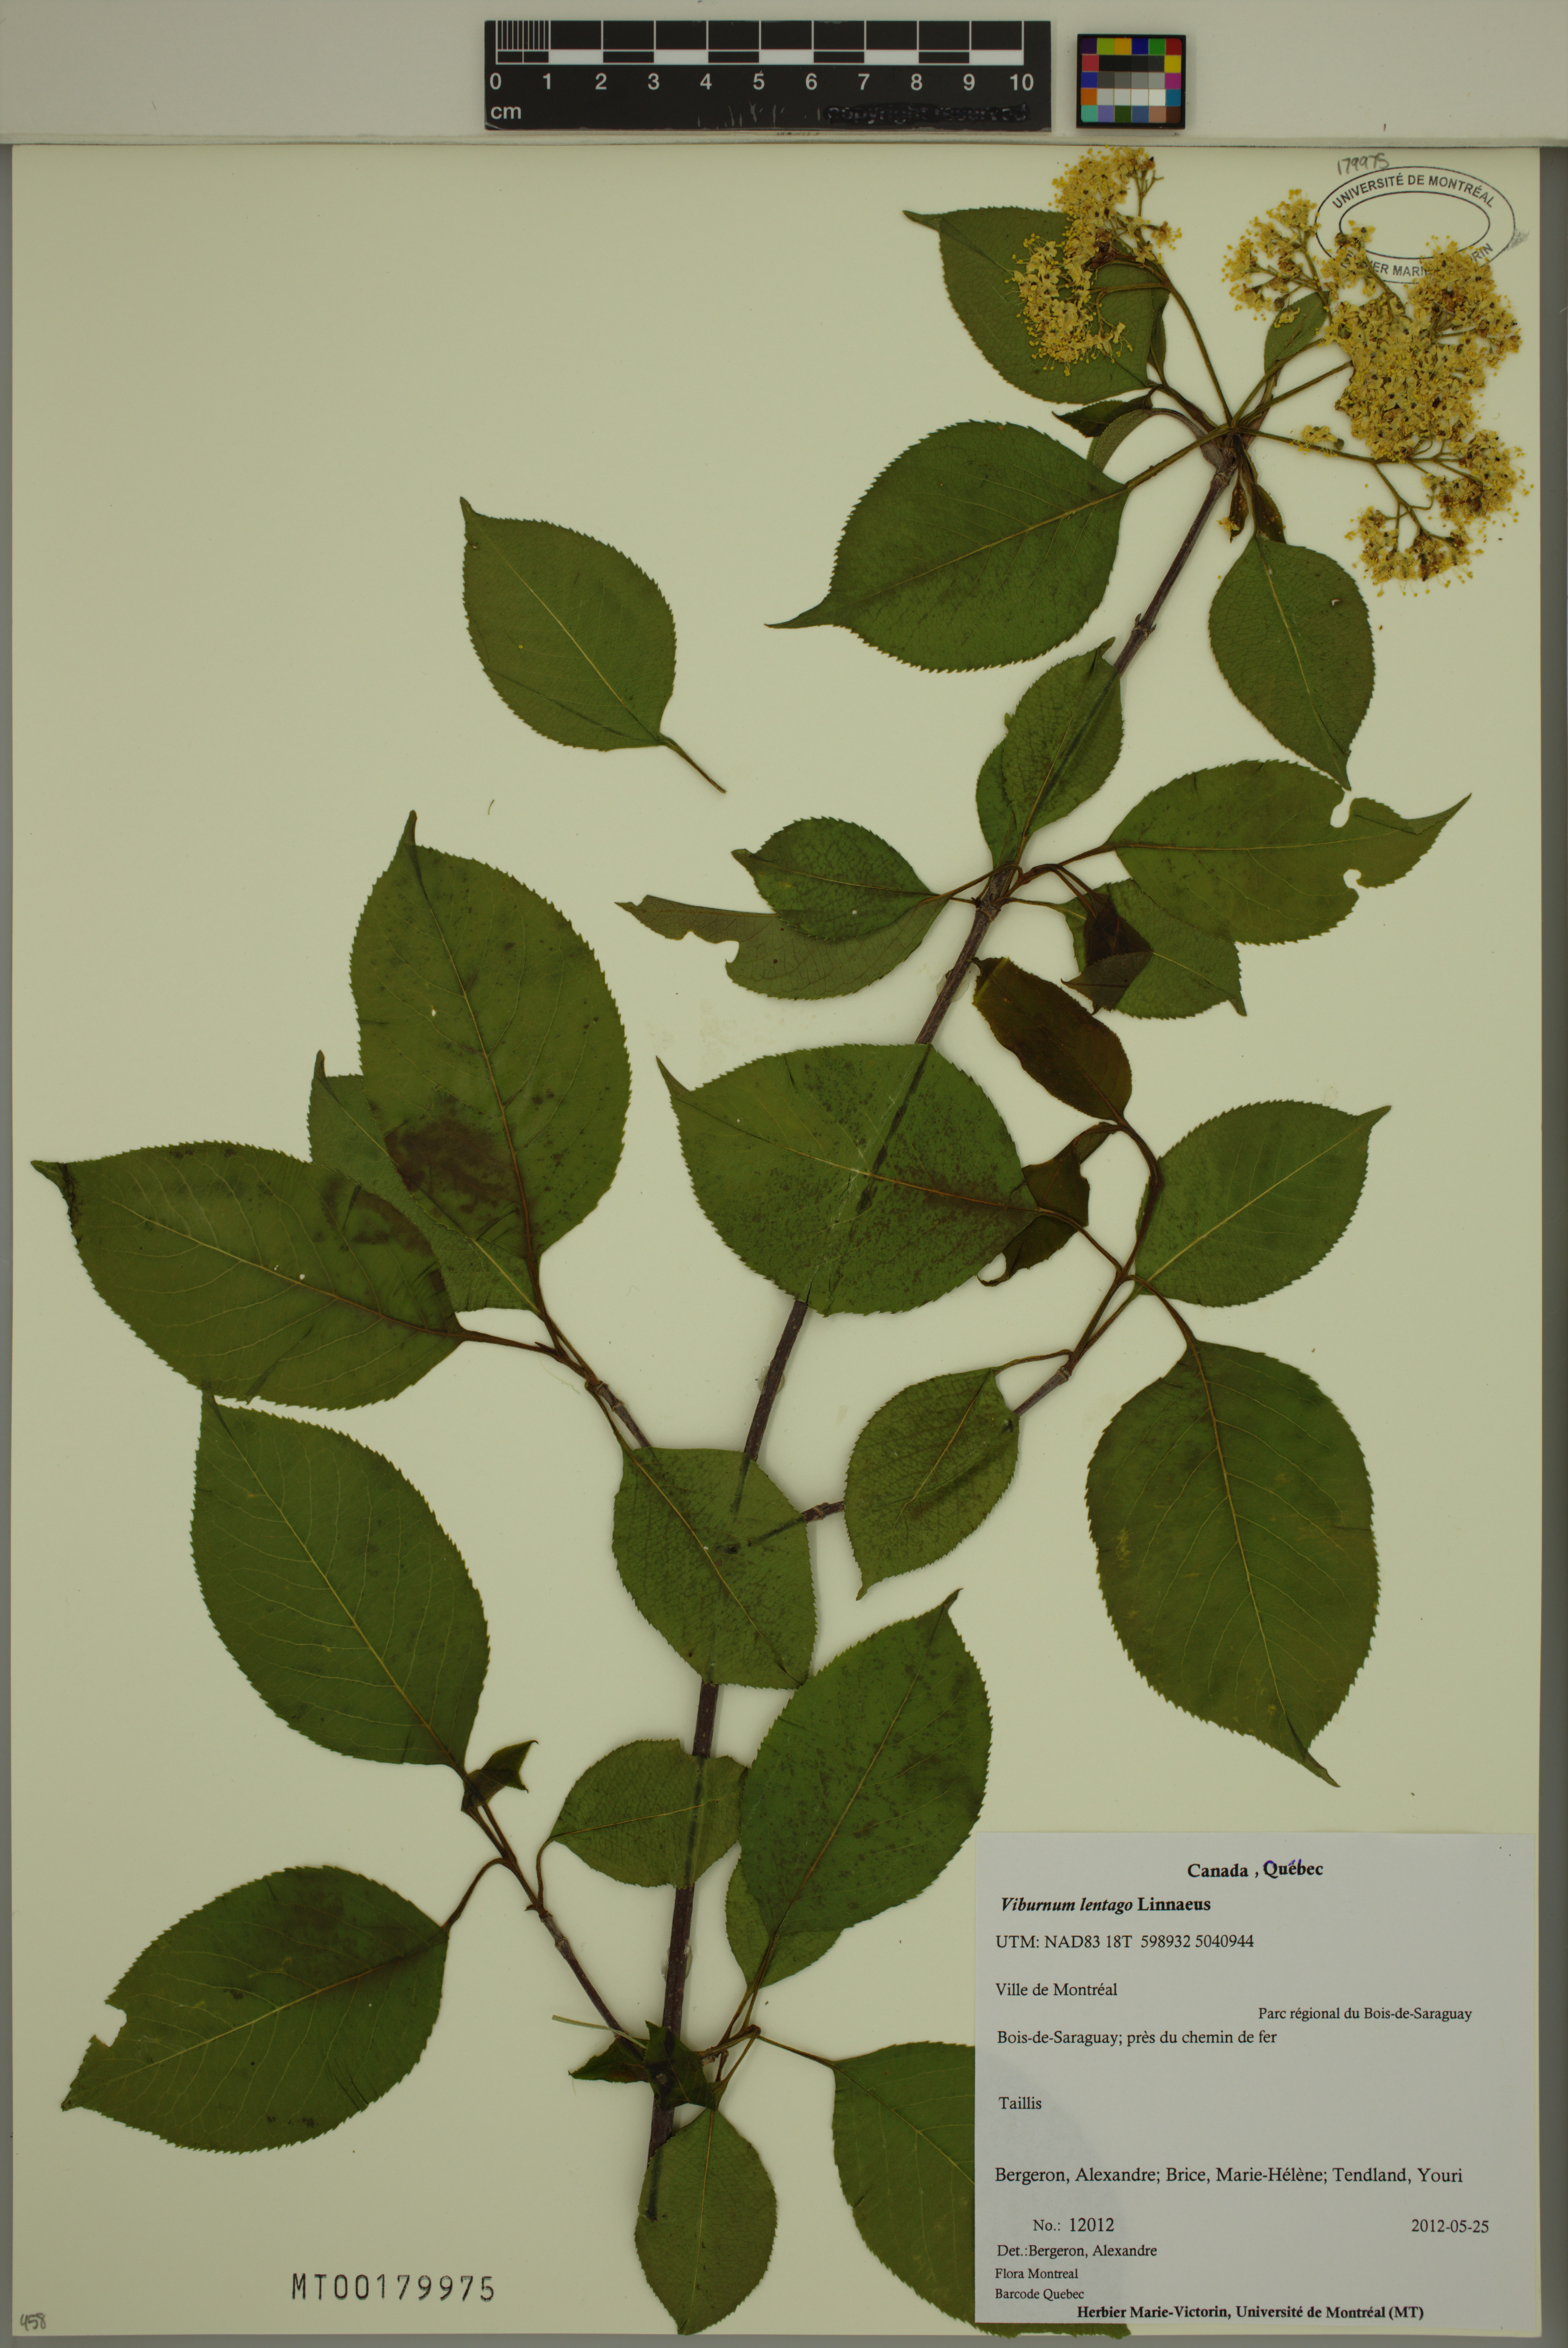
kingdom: Plantae
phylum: Tracheophyta
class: Magnoliopsida
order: Dipsacales
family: Viburnaceae
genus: Viburnum
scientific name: Viburnum lentago
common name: Black haw
